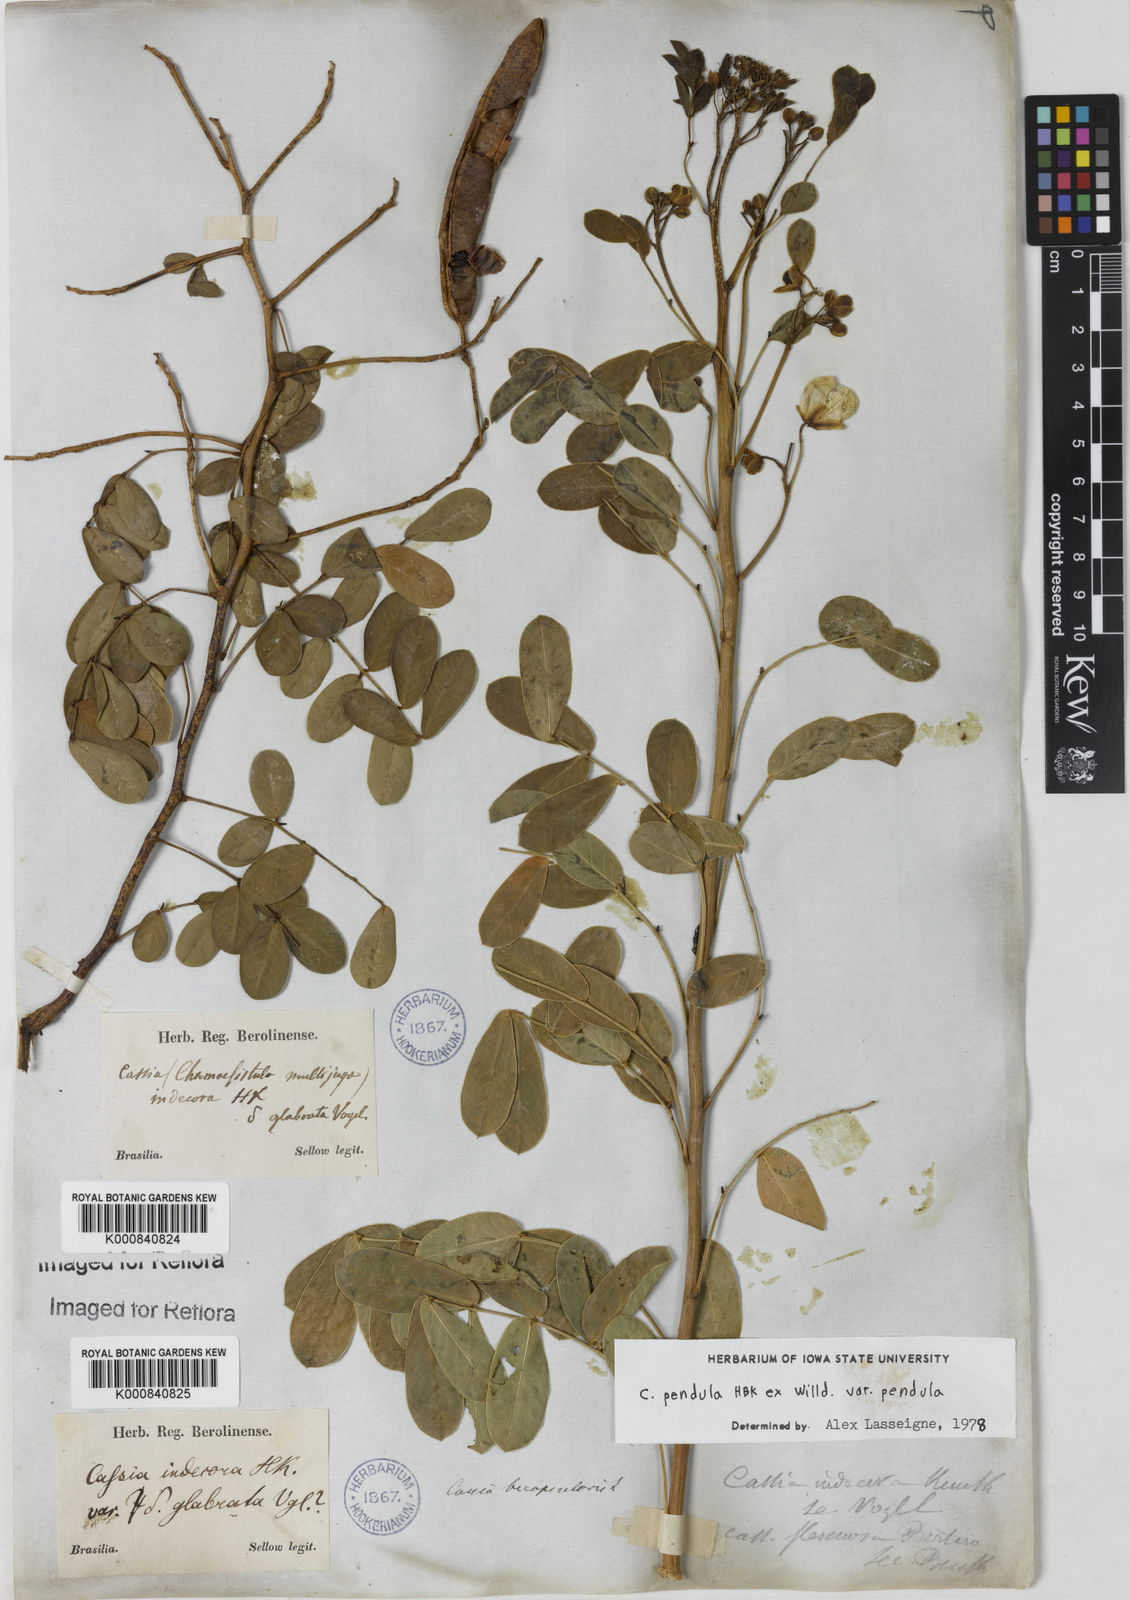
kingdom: Plantae
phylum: Tracheophyta
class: Magnoliopsida
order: Fabales
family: Fabaceae
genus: Senna
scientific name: Senna pendula
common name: Easter cassia
